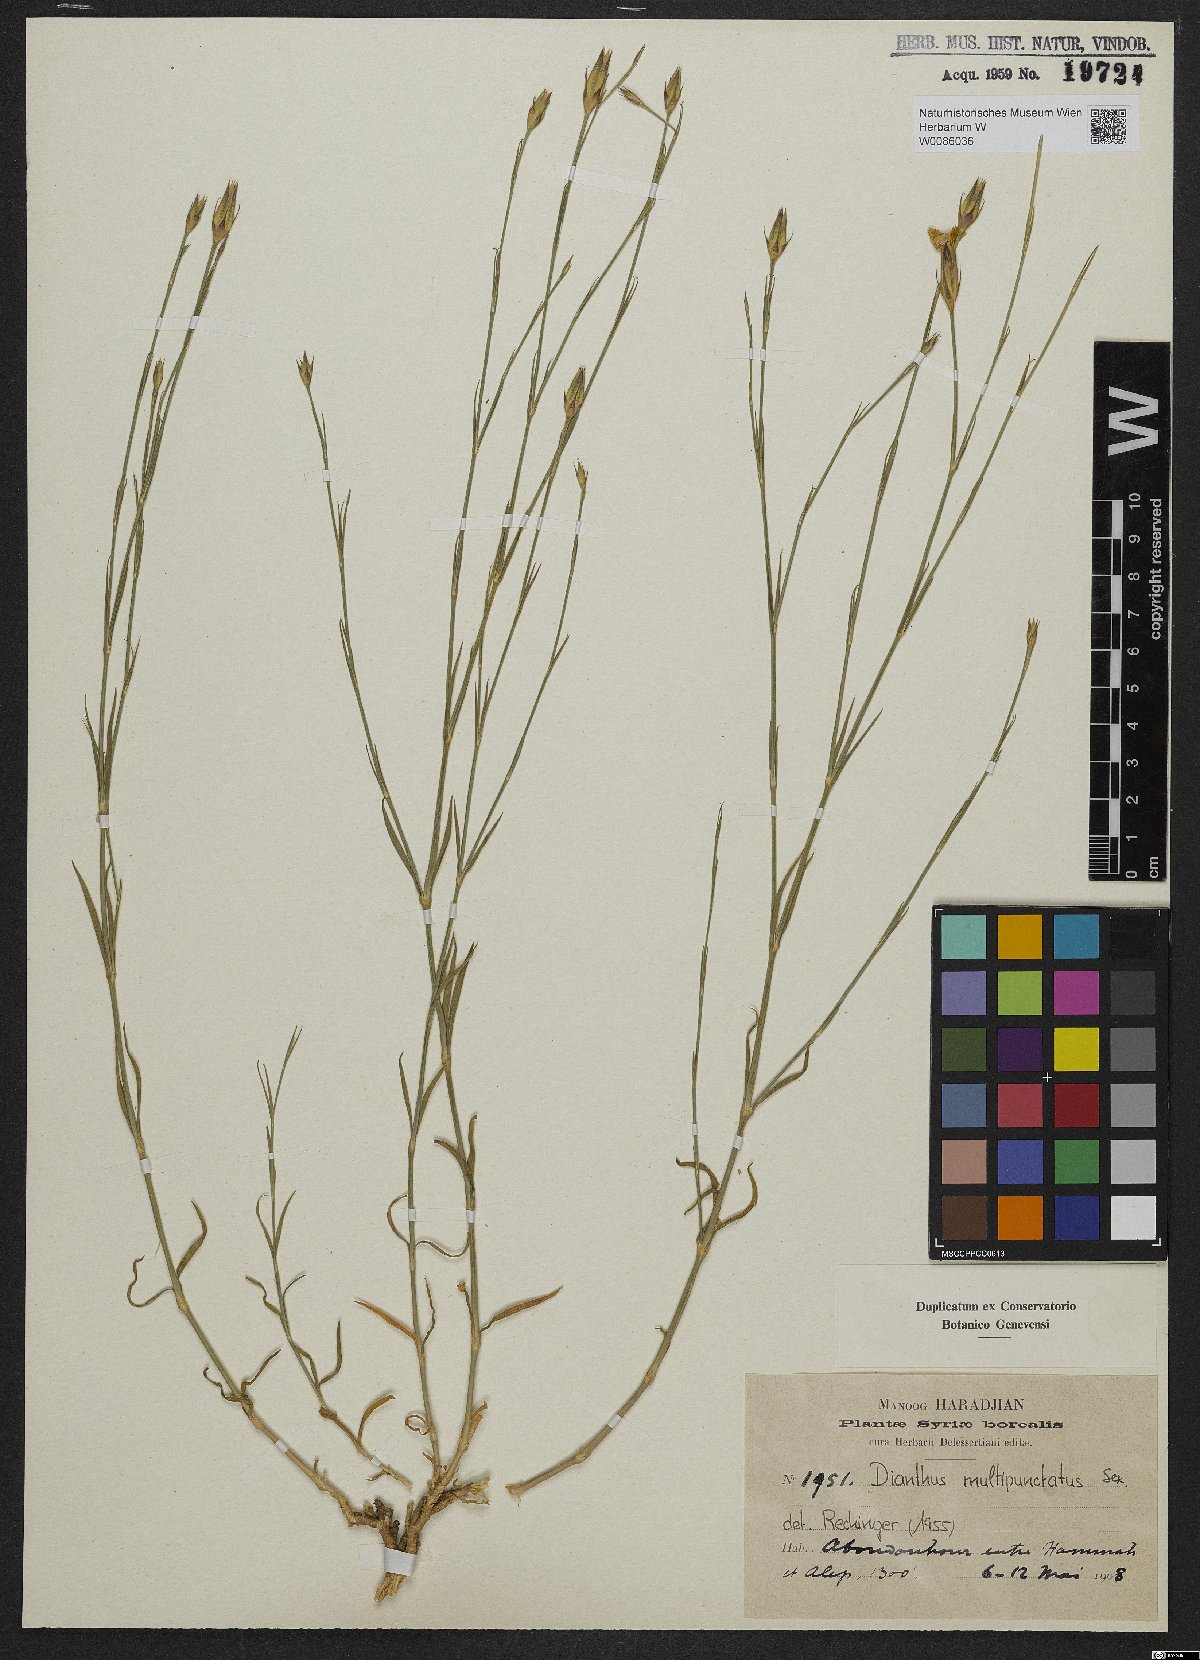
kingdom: Plantae
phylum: Tracheophyta
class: Magnoliopsida
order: Caryophyllales
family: Caryophyllaceae
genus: Dianthus
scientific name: Dianthus strictus
